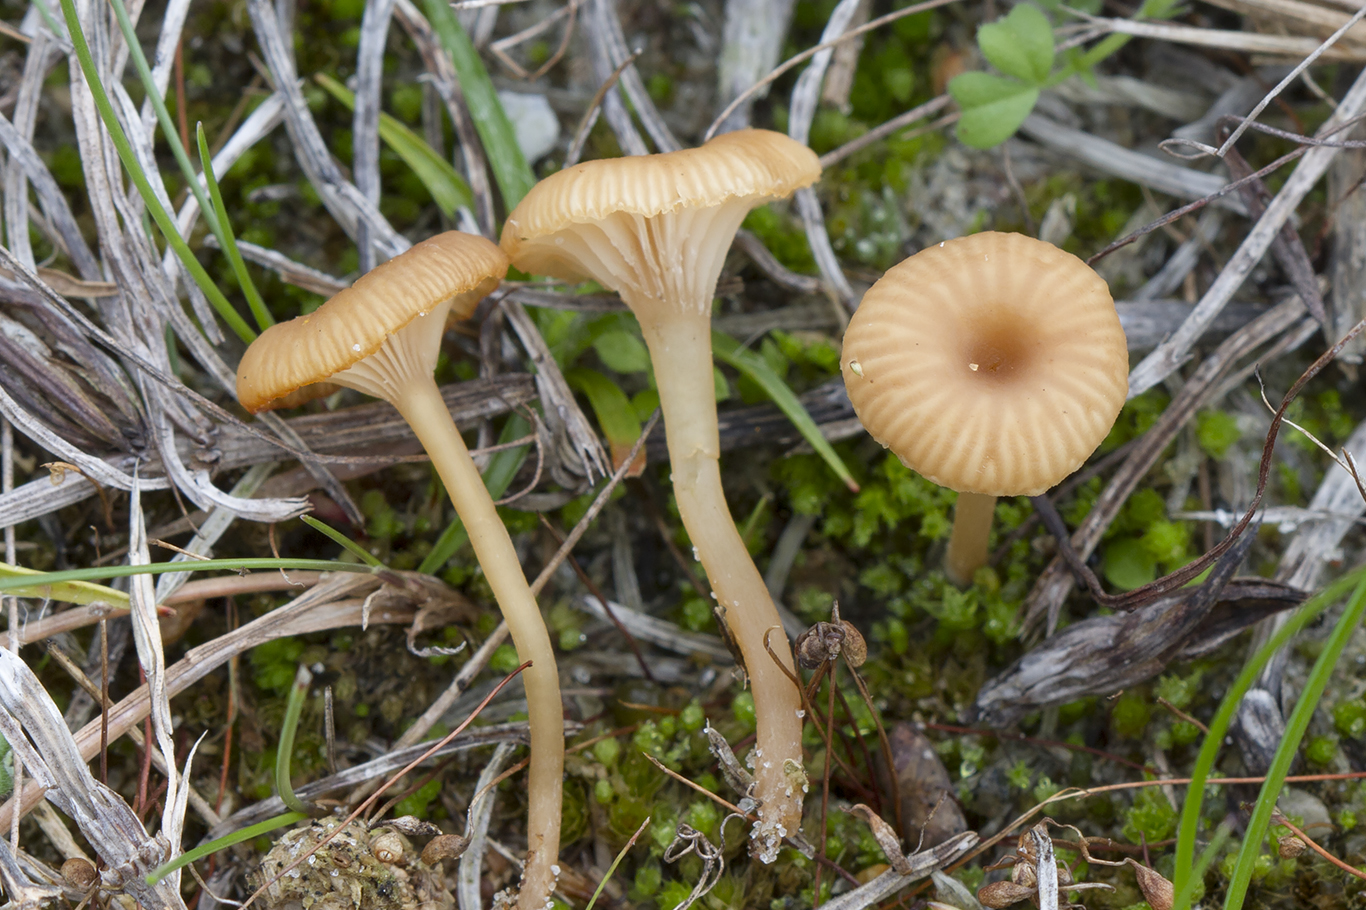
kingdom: Fungi
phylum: Basidiomycota
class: Agaricomycetes
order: Agaricales
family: Tricholomataceae
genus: Omphalina
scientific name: Omphalina pyxidata
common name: rødbrun navlehat
